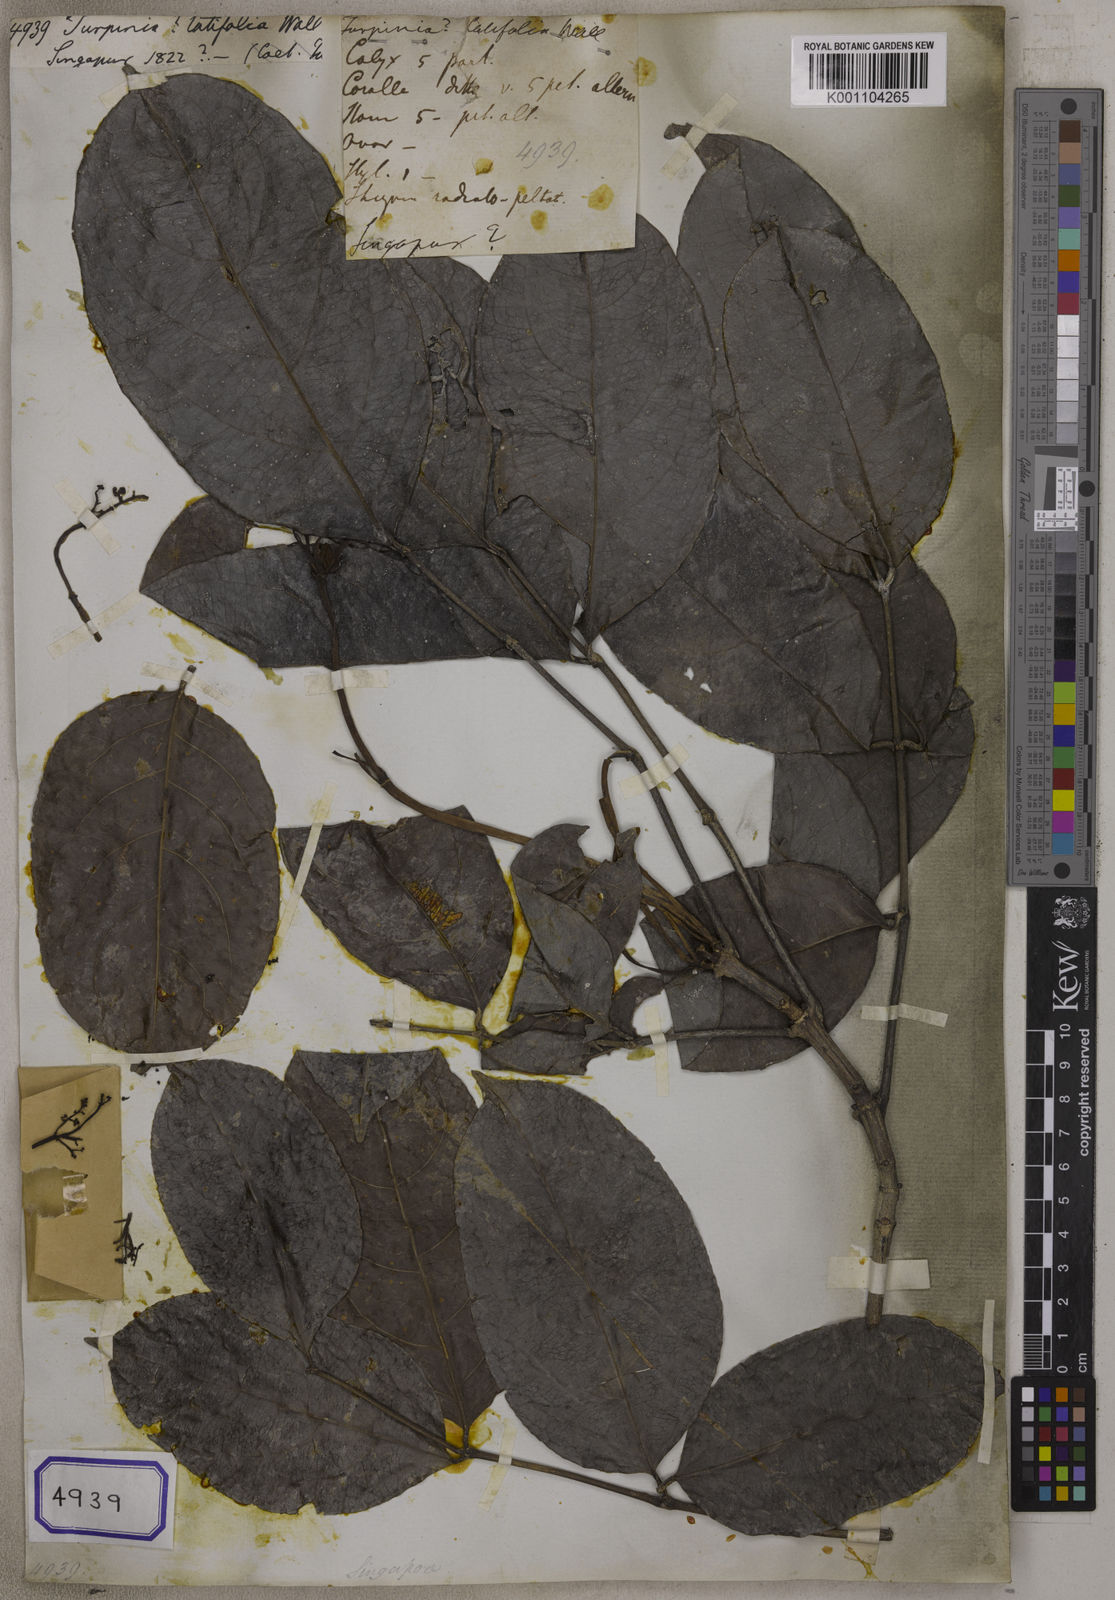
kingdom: Plantae
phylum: Tracheophyta
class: Magnoliopsida
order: Crossosomatales
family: Staphyleaceae
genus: Turpinia
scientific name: Turpinia
